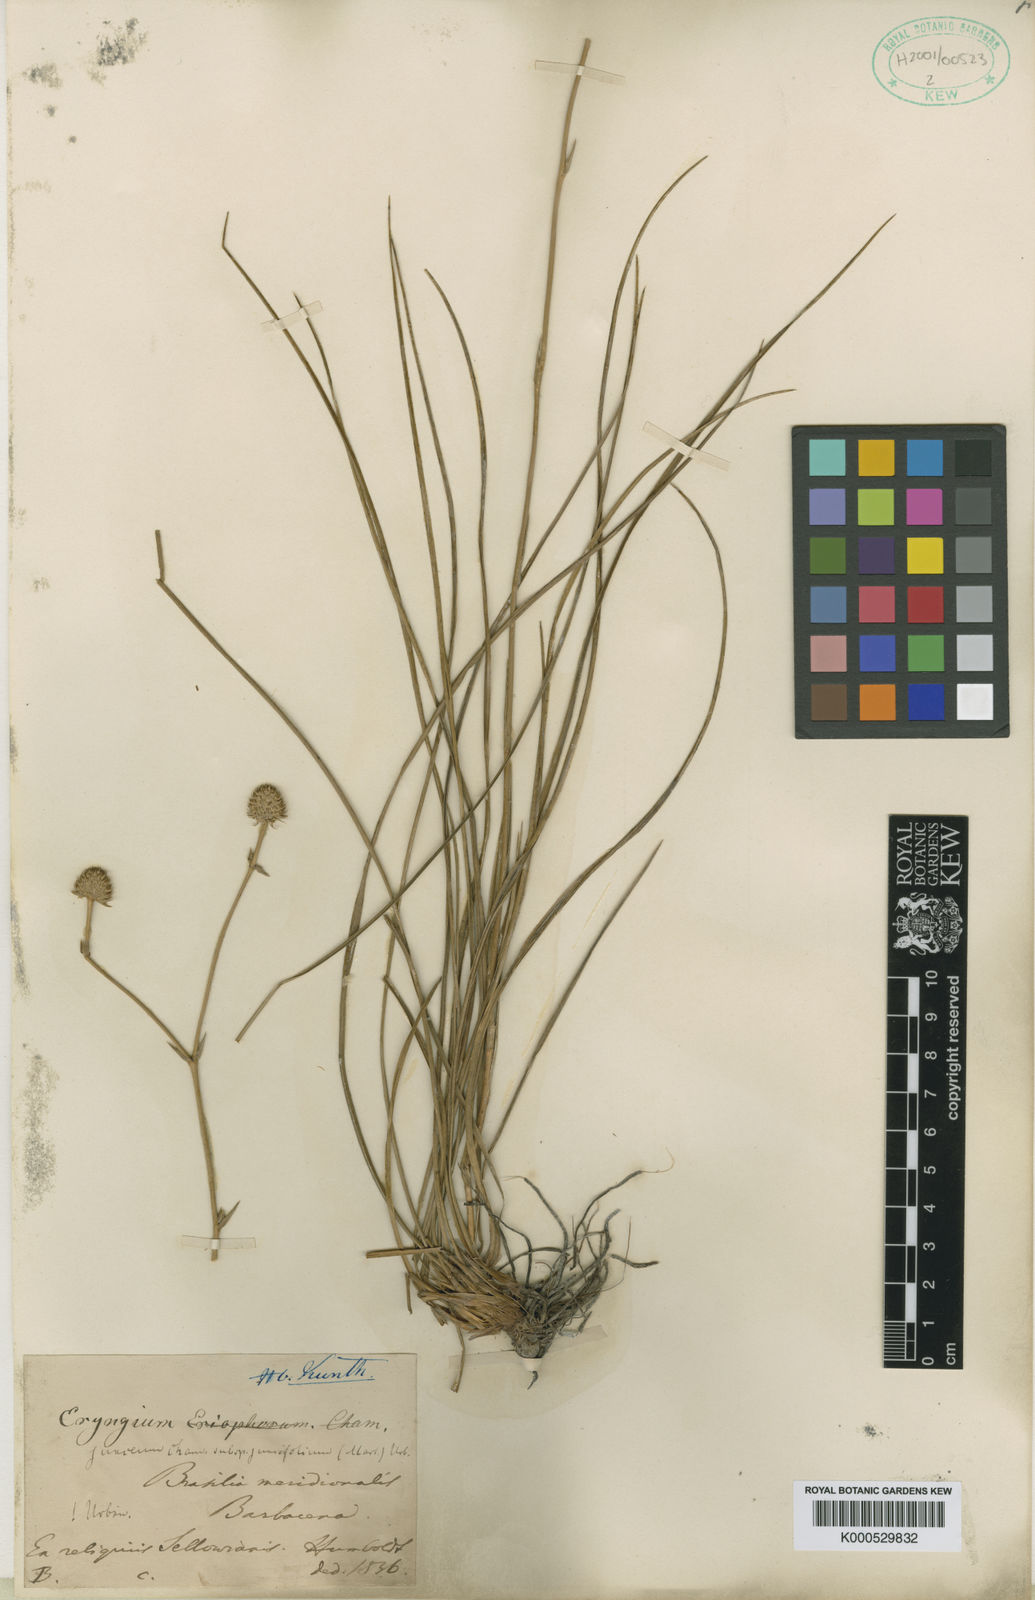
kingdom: Plantae
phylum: Tracheophyta
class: Magnoliopsida
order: Apiales
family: Apiaceae
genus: Eryngium
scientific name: Eryngium juncifolium
